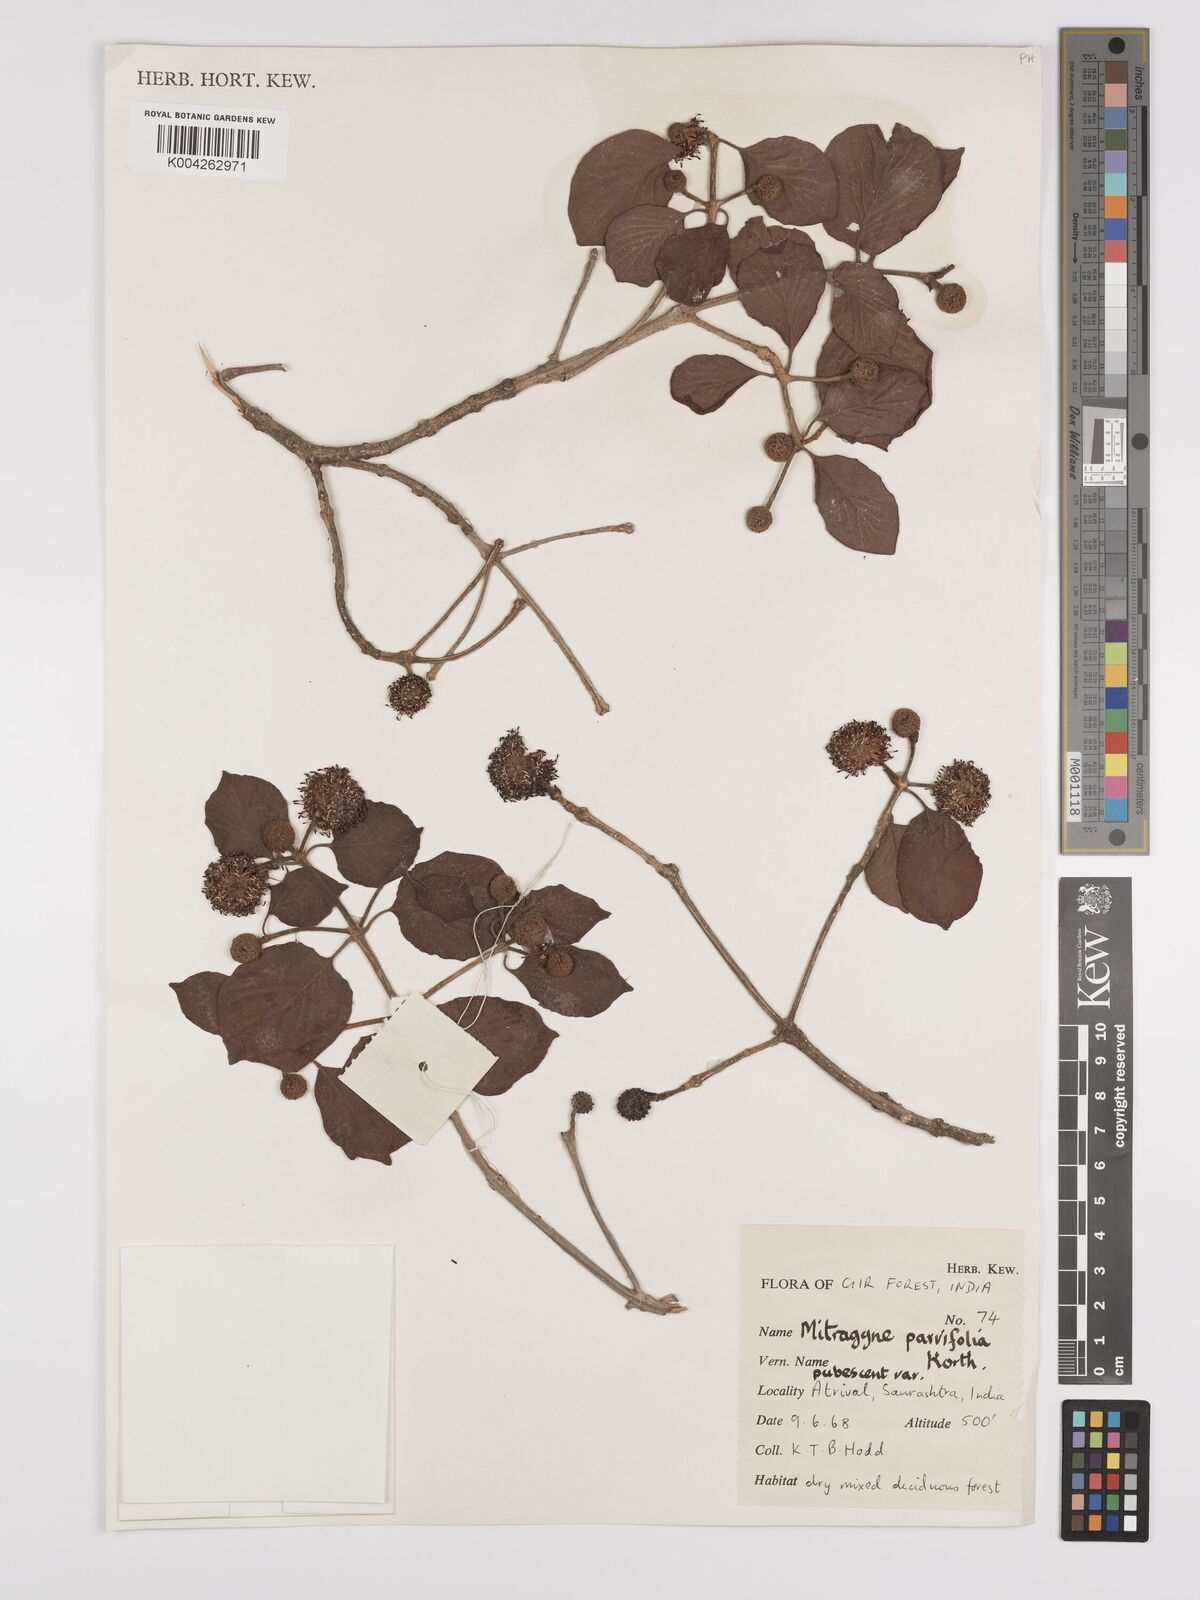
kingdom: Plantae
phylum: Tracheophyta
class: Magnoliopsida
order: Gentianales
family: Rubiaceae
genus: Mitragyna
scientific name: Mitragyna parvifolia
